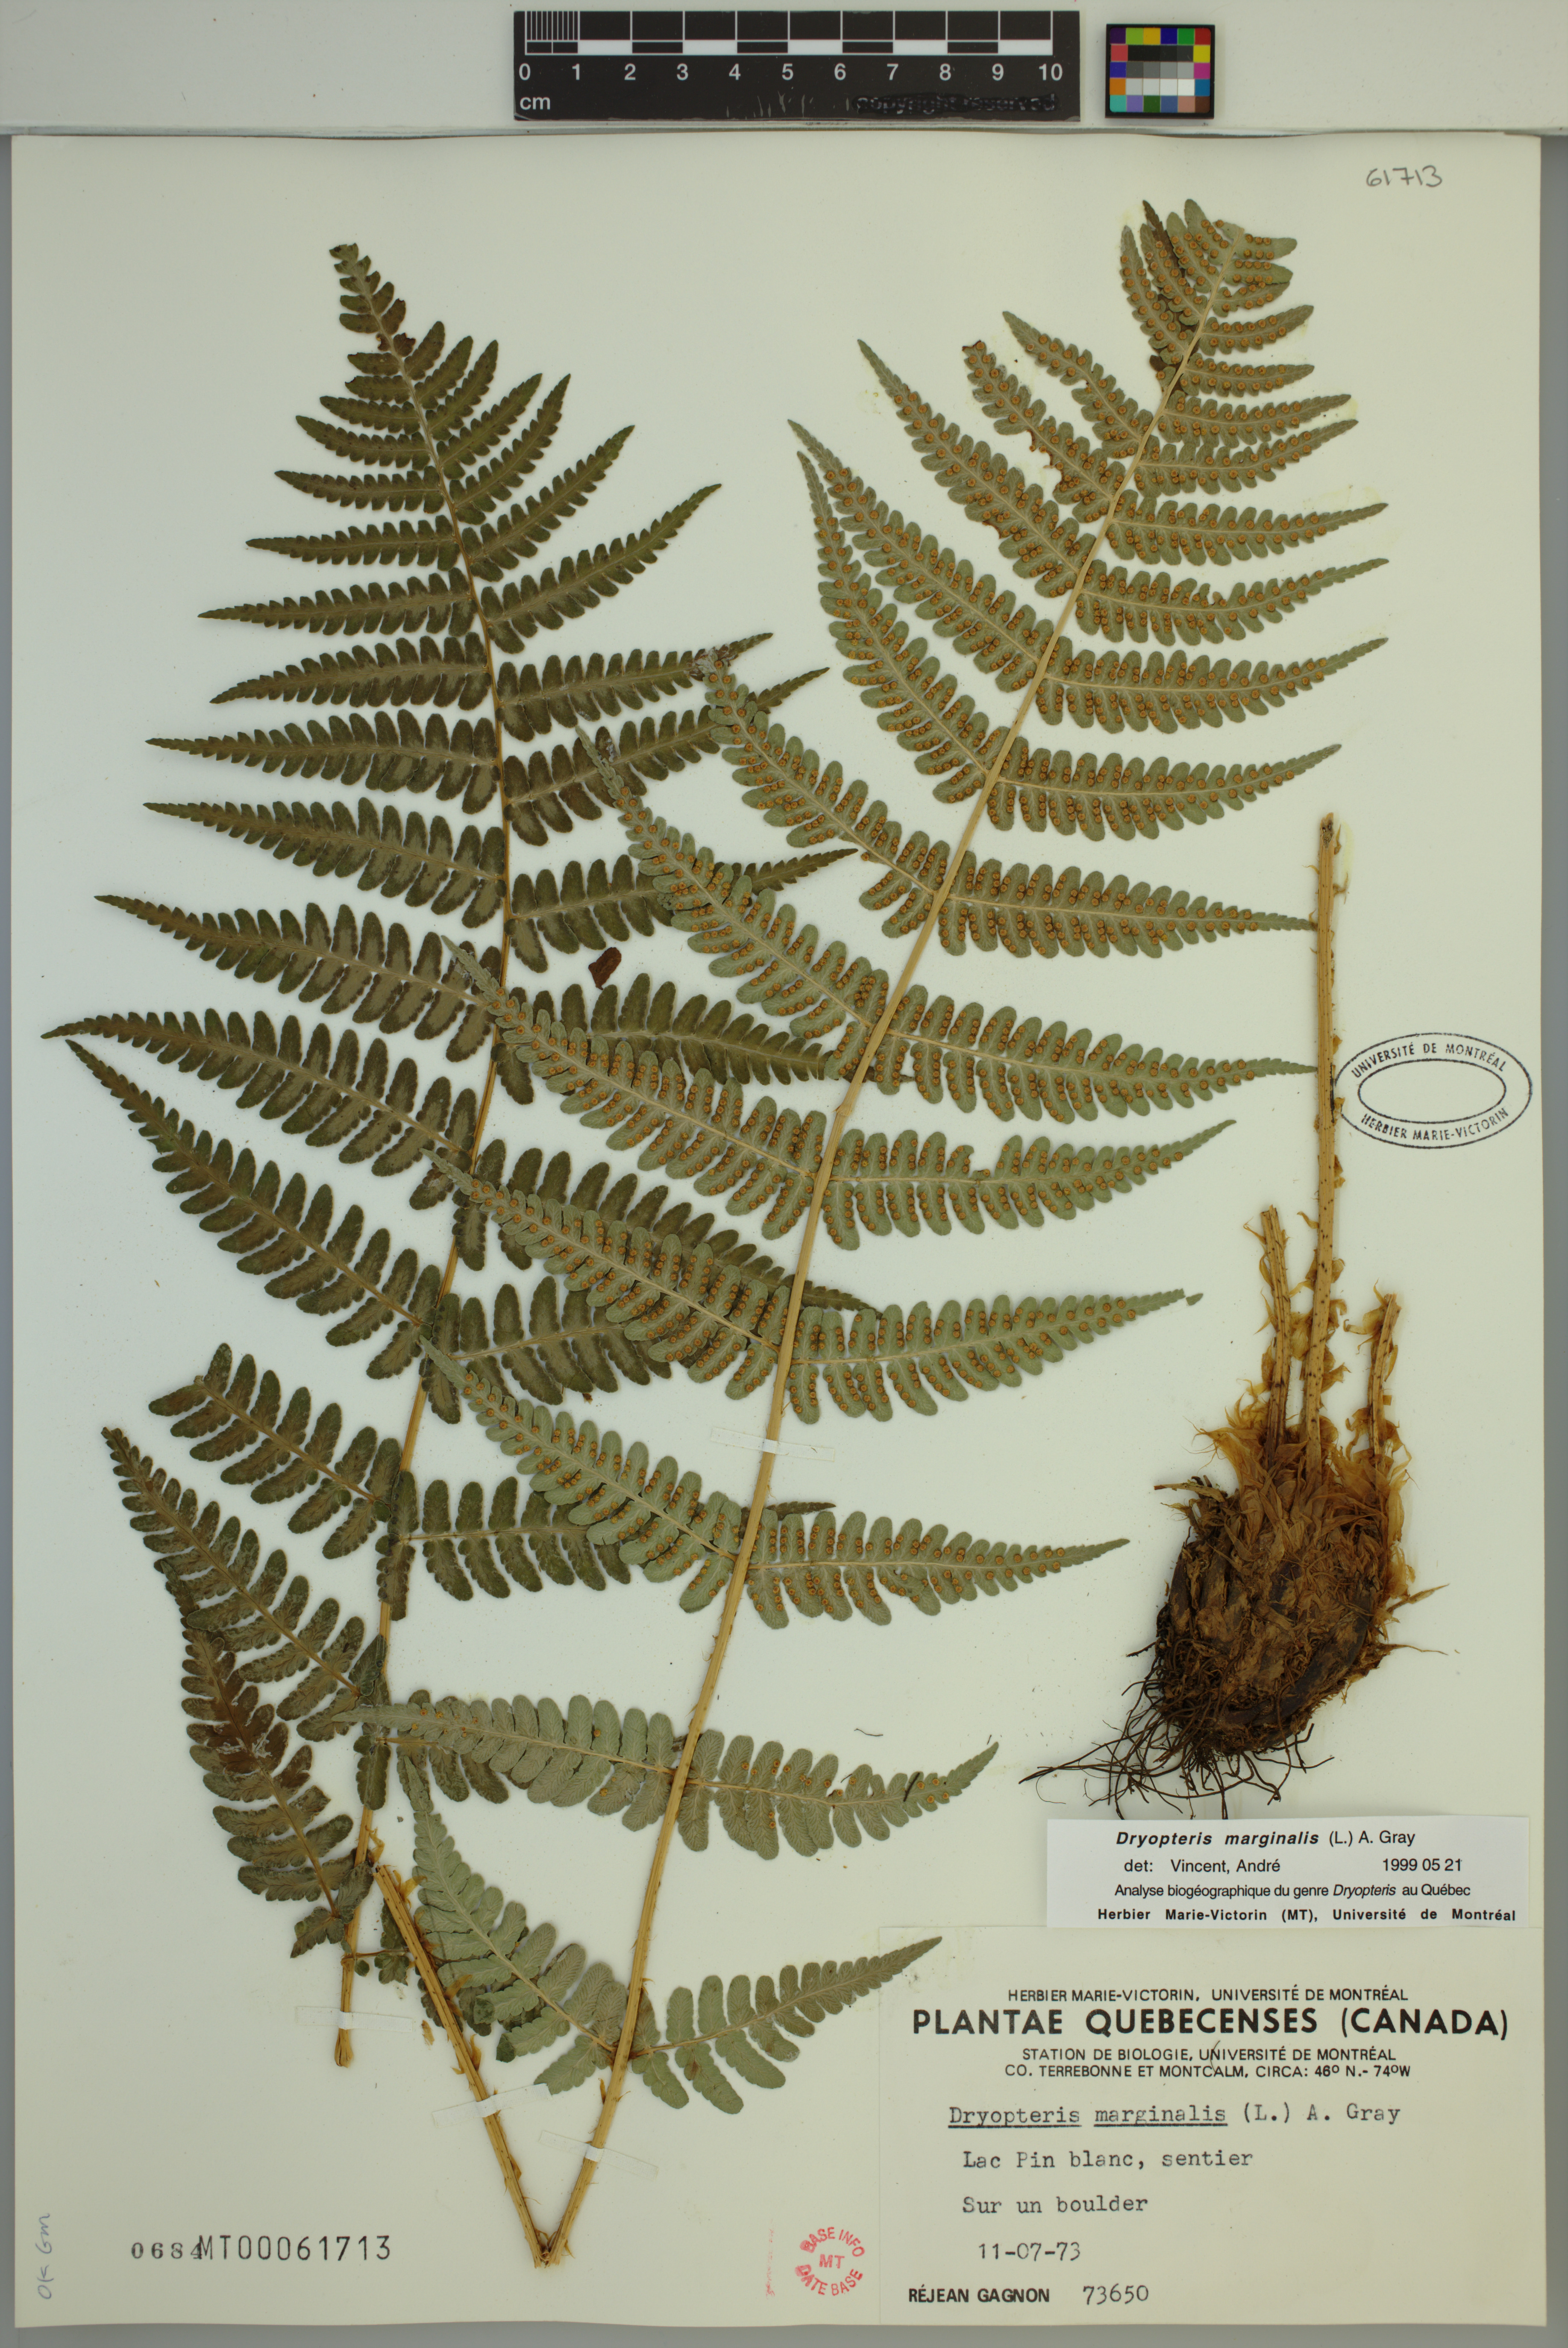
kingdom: Plantae
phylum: Tracheophyta
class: Polypodiopsida
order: Polypodiales
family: Dryopteridaceae
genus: Dryopteris
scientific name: Dryopteris marginalis
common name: Marginal wood fern
